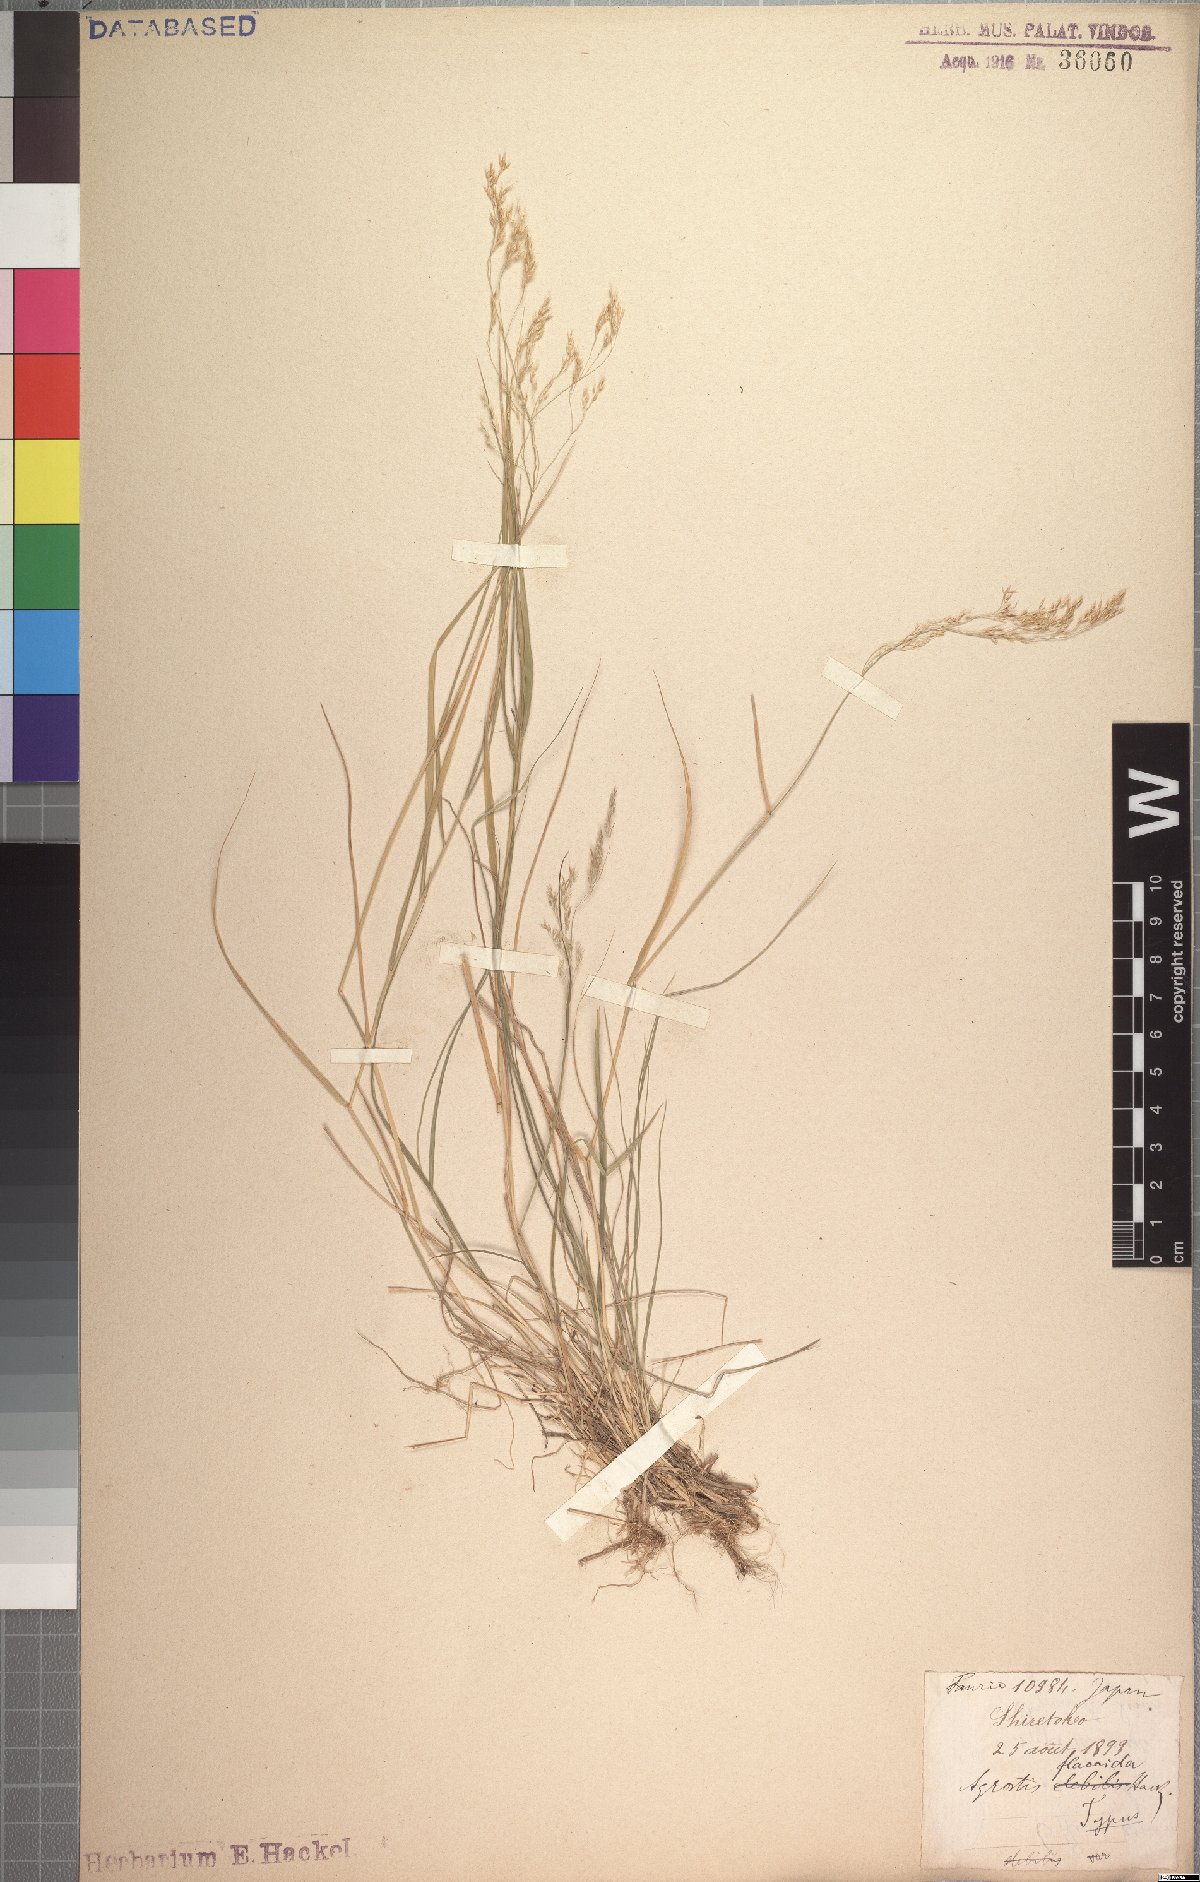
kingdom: Plantae
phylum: Tracheophyta
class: Liliopsida
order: Poales
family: Poaceae
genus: Agrostis
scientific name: Agrostis flaccida
